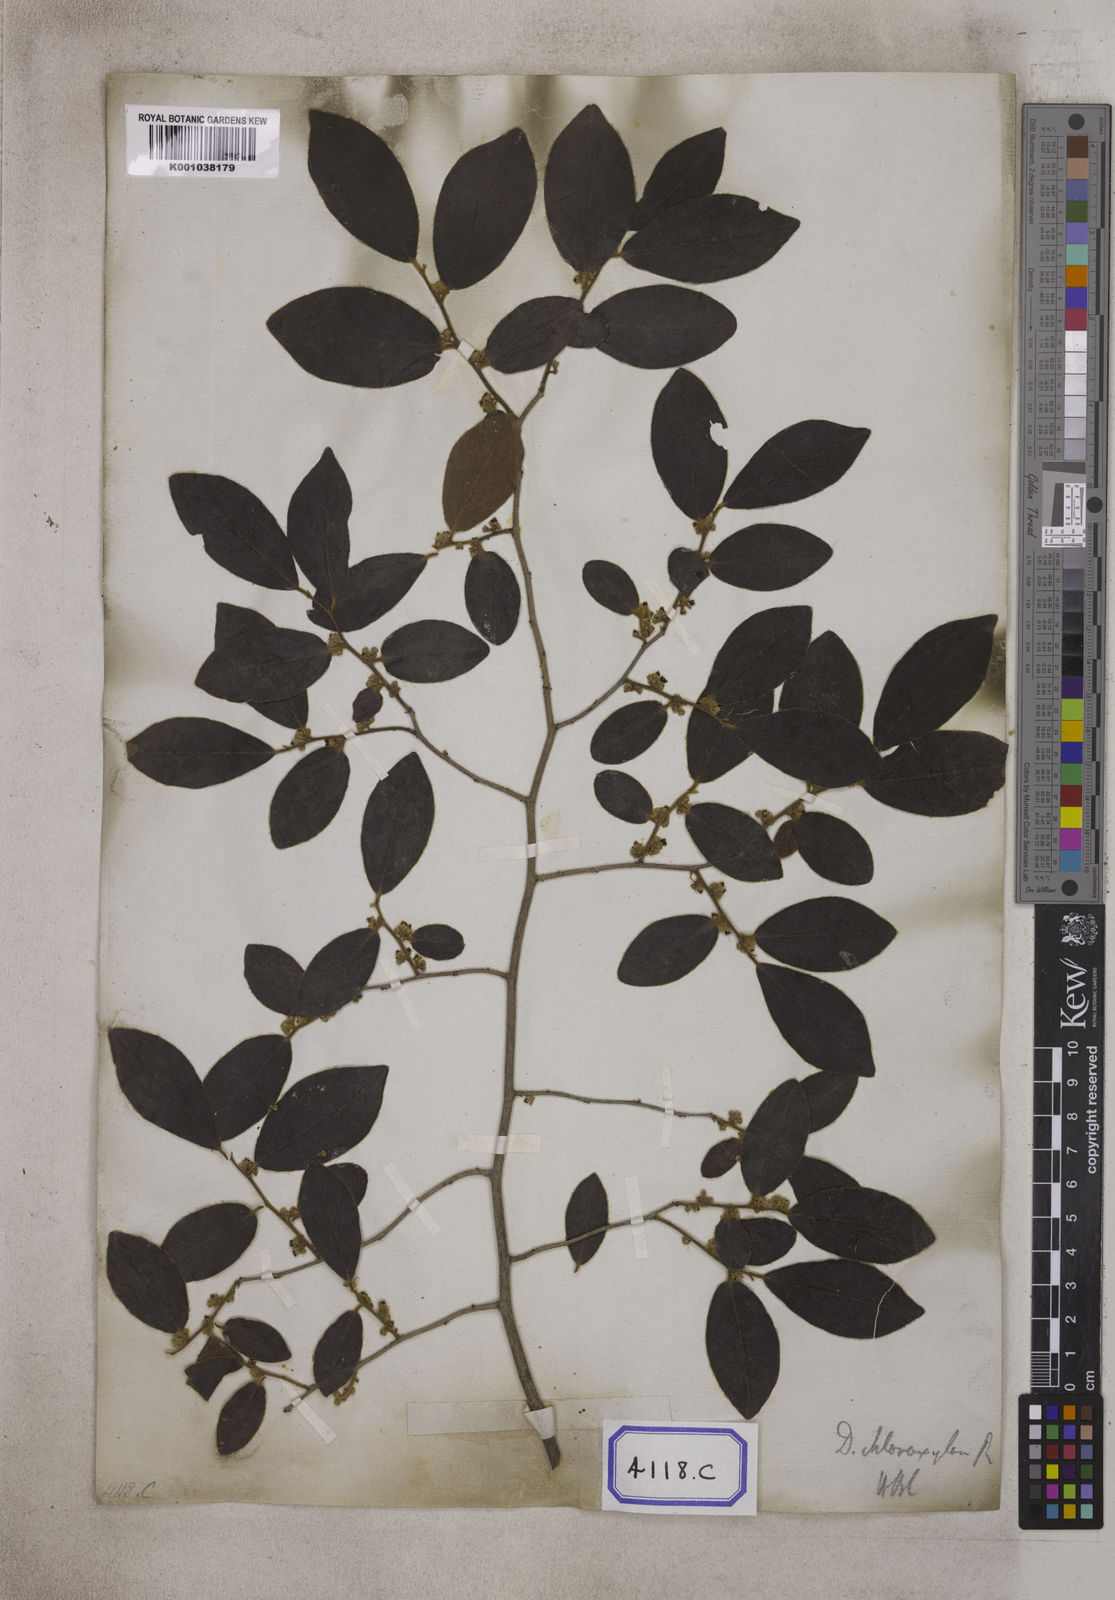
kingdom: Plantae
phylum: Tracheophyta
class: Magnoliopsida
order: Ericales
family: Ebenaceae
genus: Diospyros
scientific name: Diospyros chloroxylon
